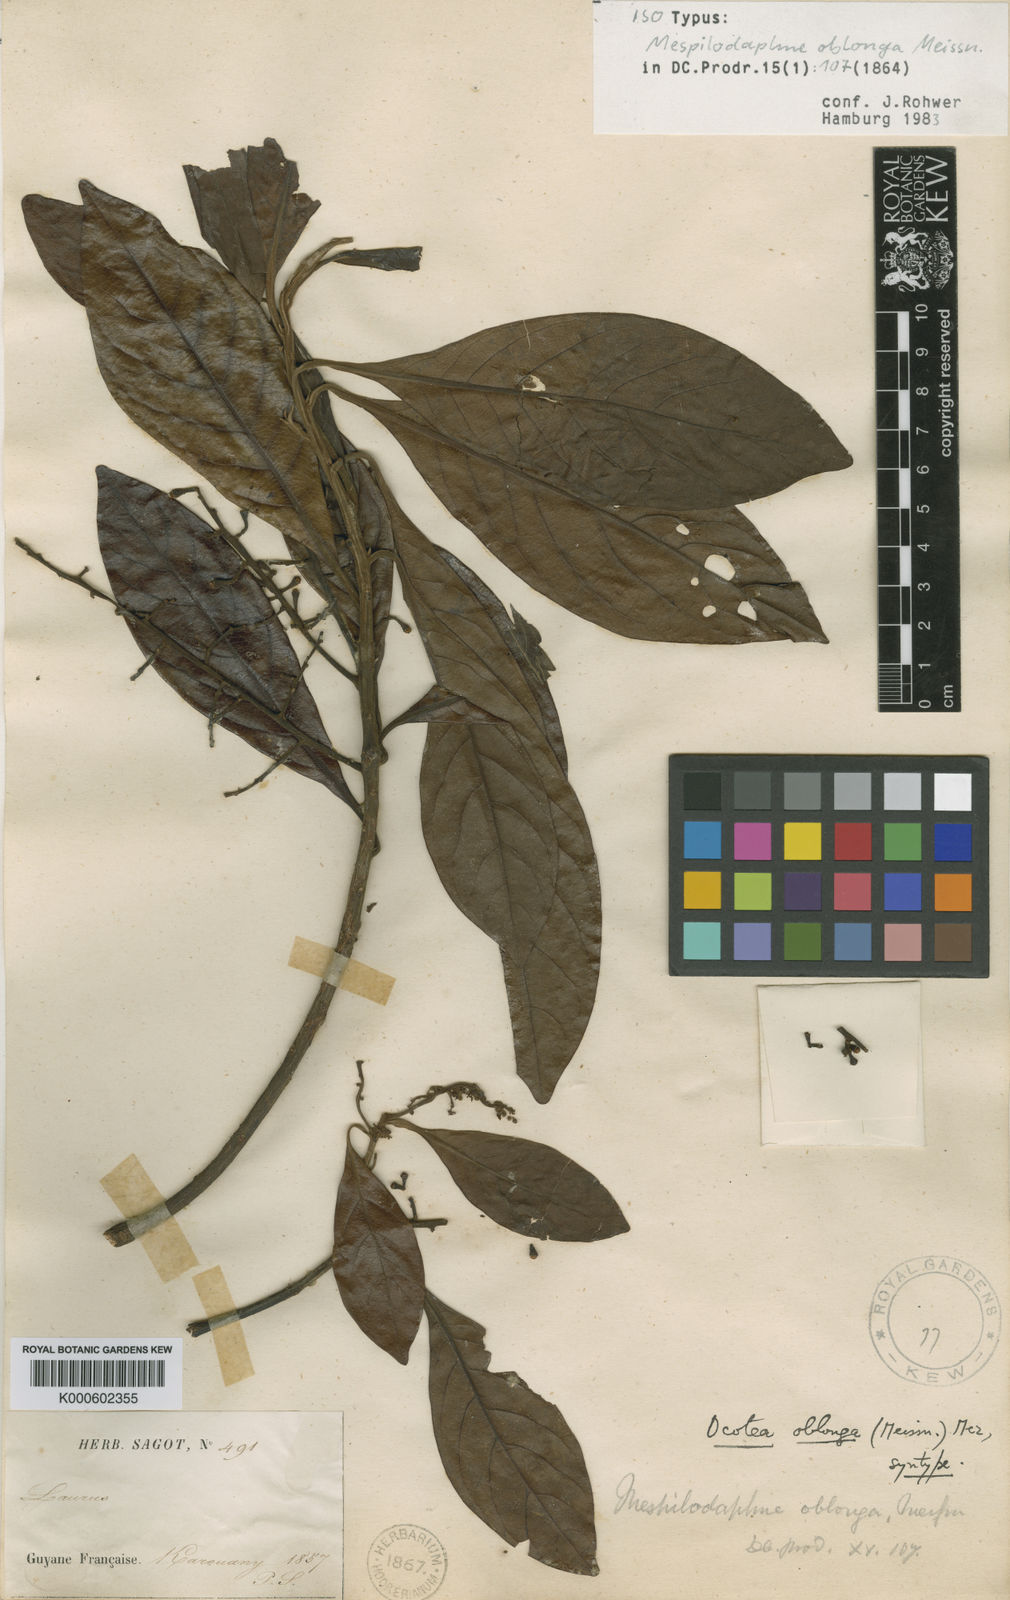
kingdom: Plantae
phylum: Tracheophyta
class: Magnoliopsida
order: Laurales
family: Lauraceae
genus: Ocotea
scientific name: Ocotea oblonga
